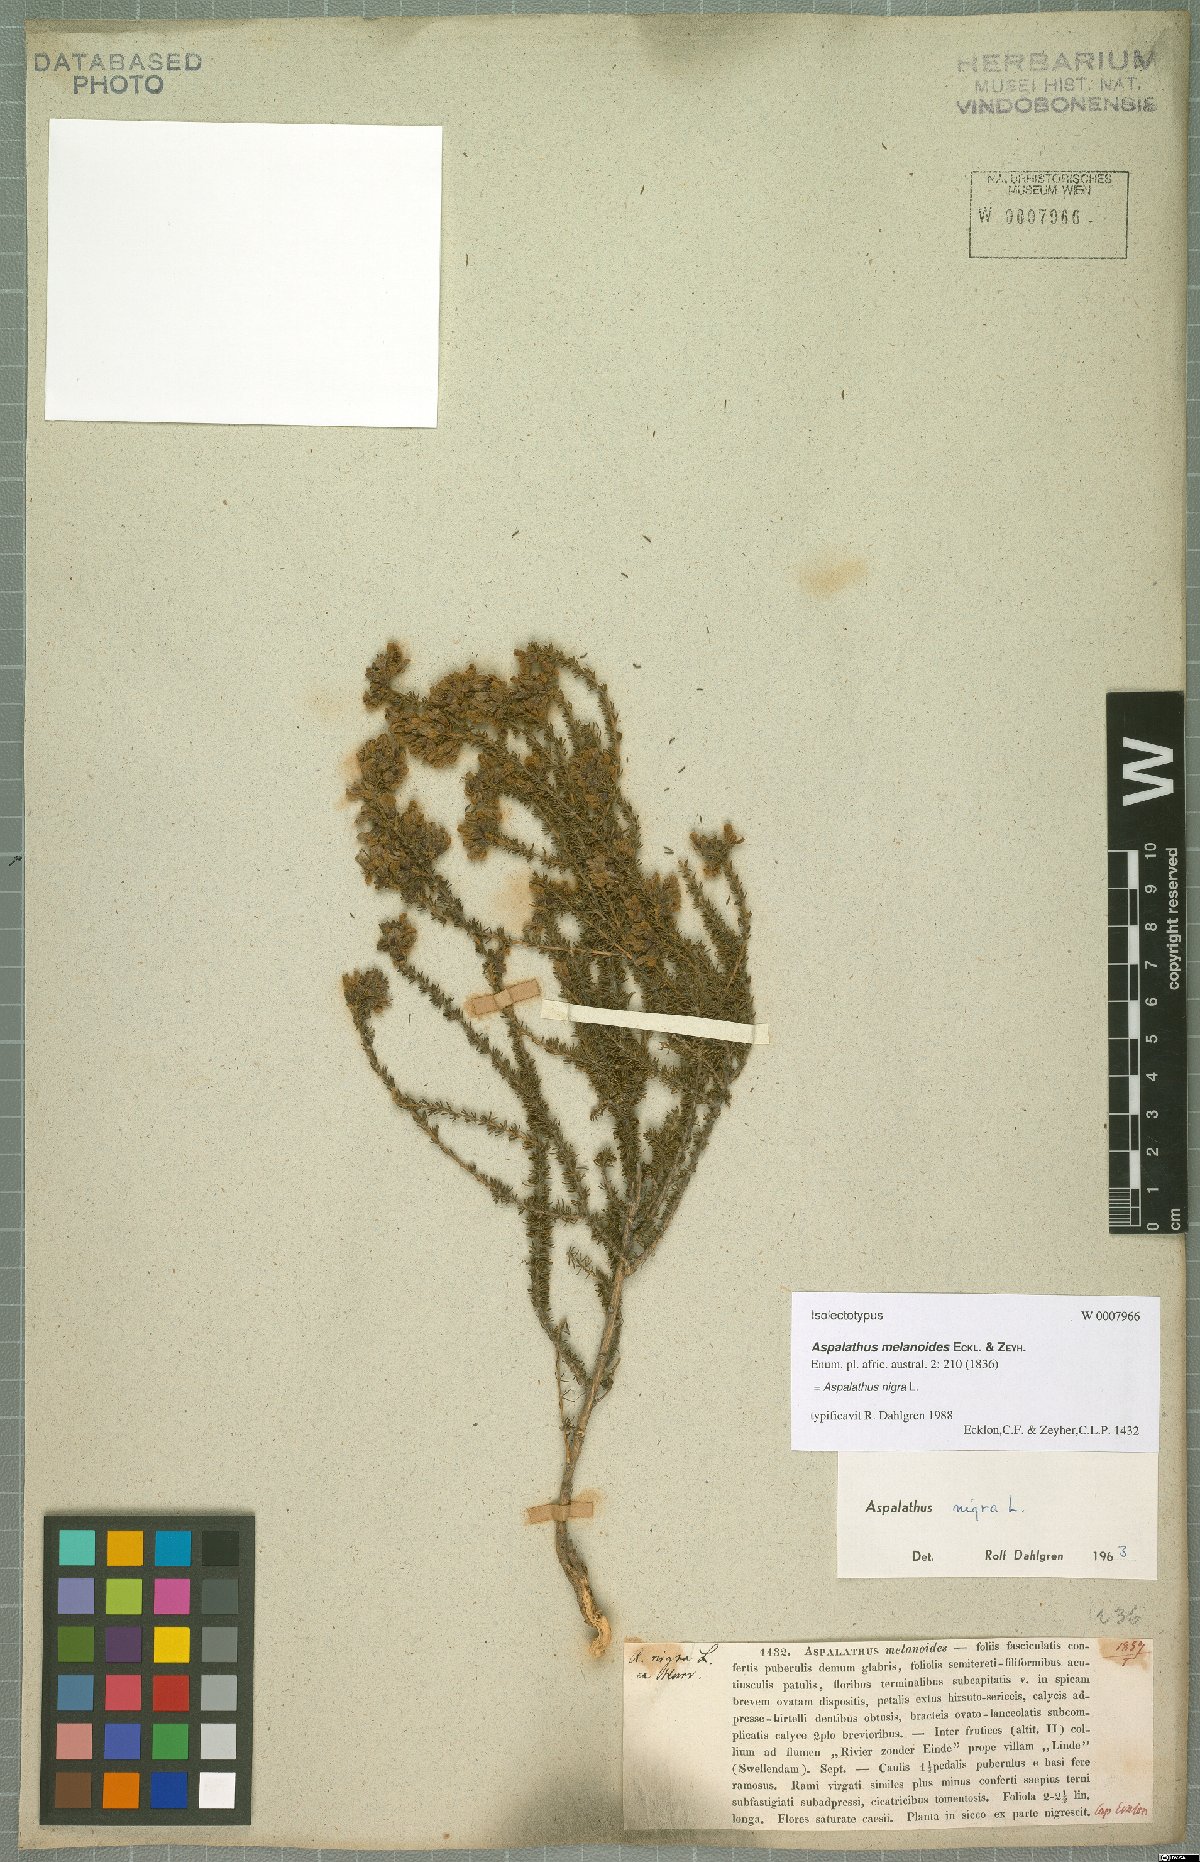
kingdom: Plantae
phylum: Tracheophyta
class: Magnoliopsida
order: Fabales
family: Fabaceae
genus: Aspalathus
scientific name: Aspalathus nigra
